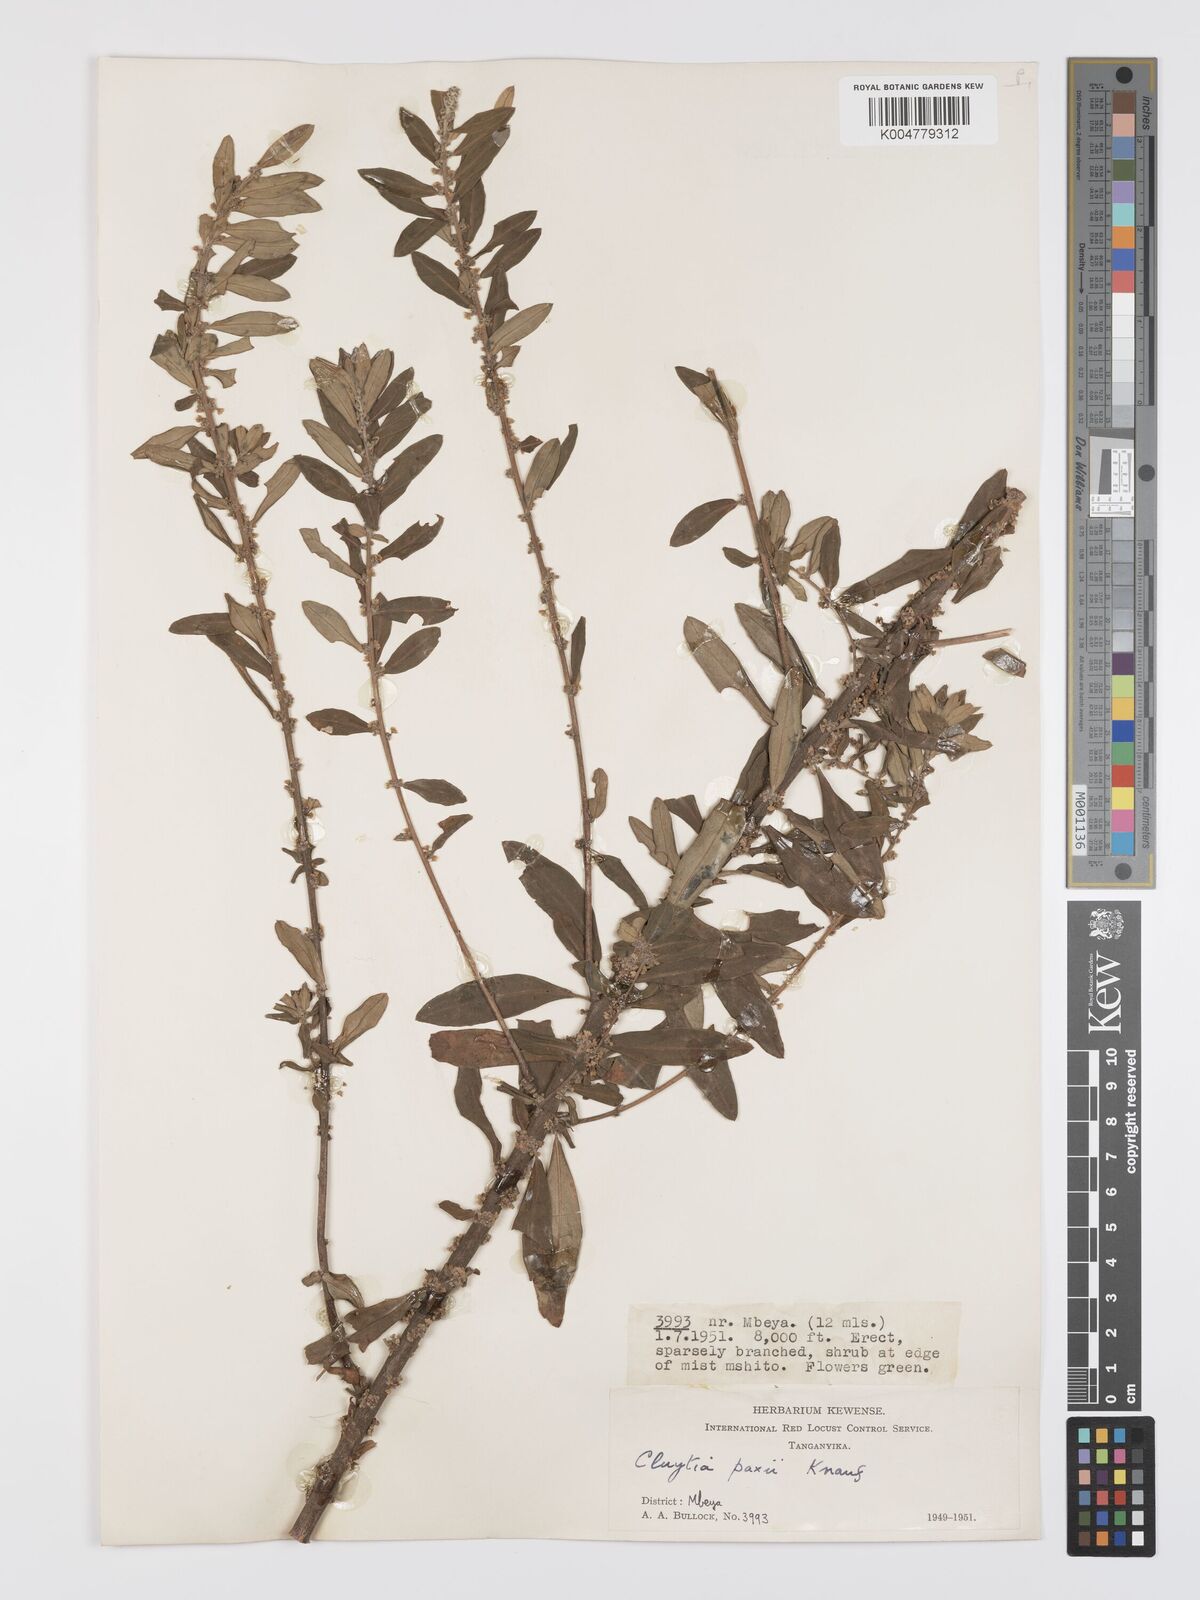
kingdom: Plantae
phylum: Tracheophyta
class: Magnoliopsida
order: Malpighiales
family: Peraceae
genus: Clutia
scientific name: Clutia paxii
